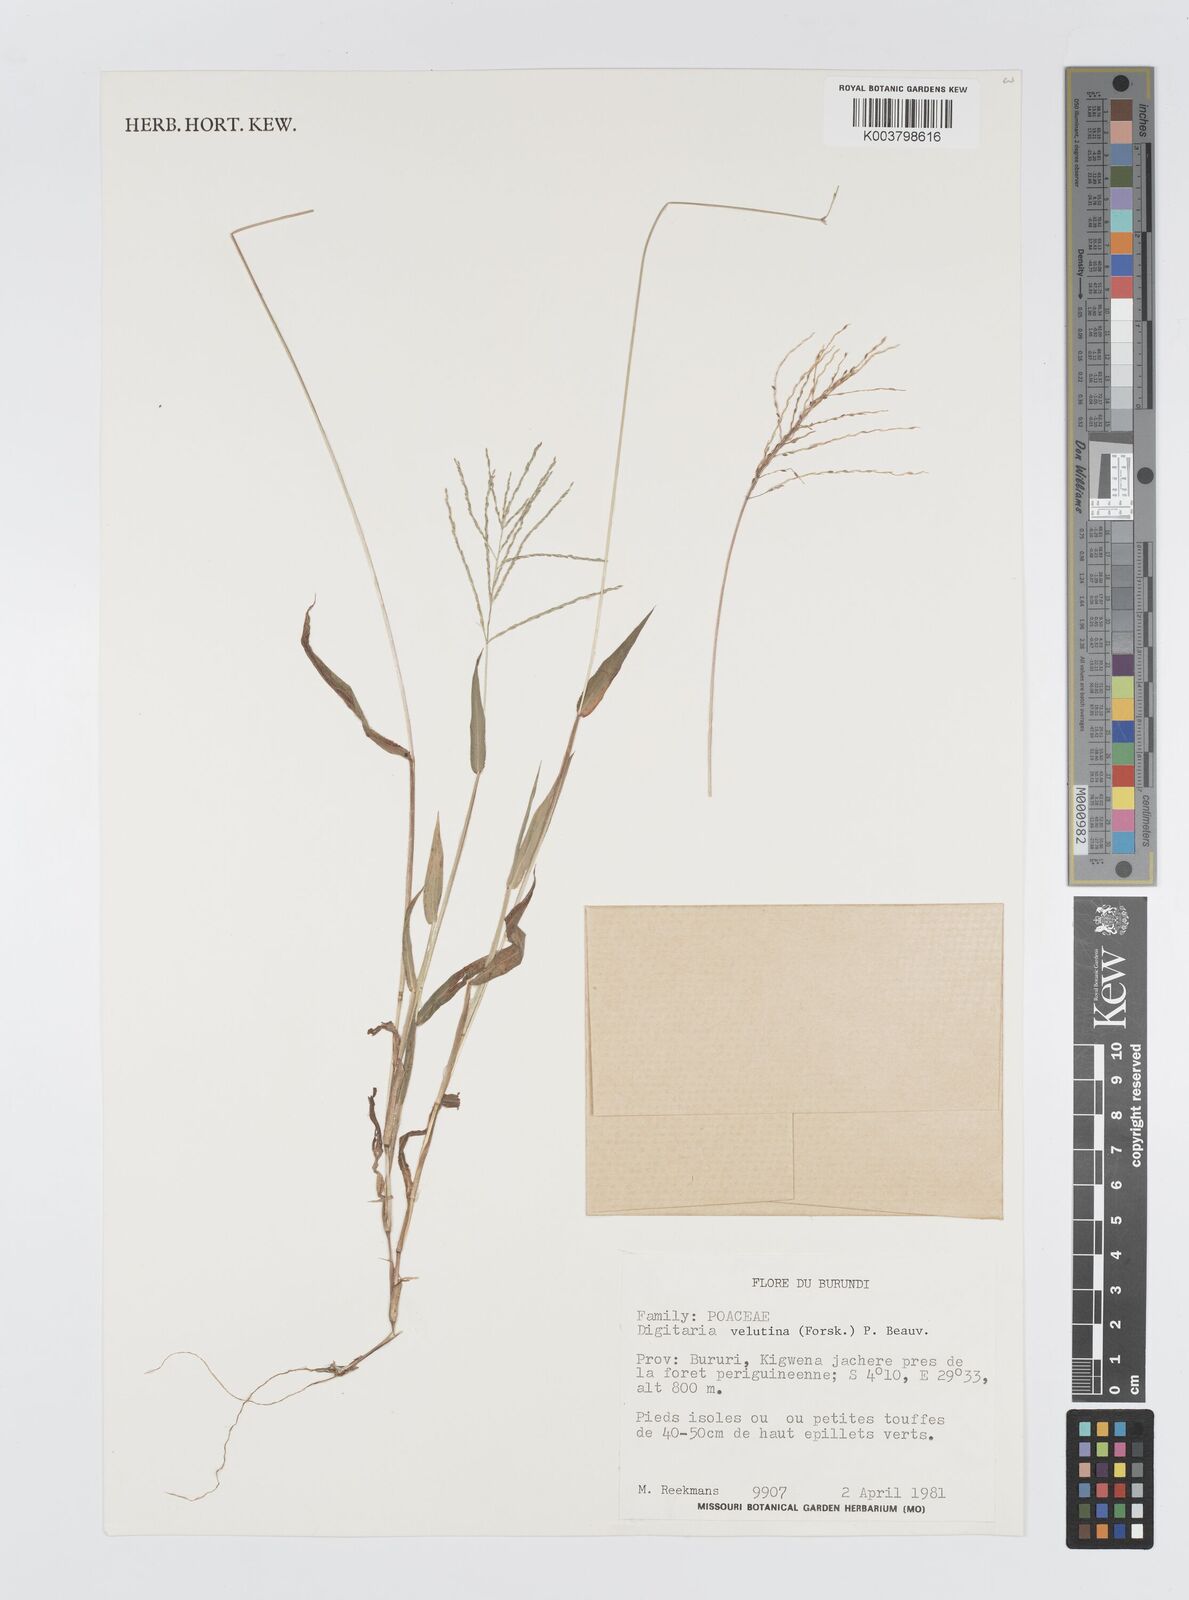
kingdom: Plantae
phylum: Tracheophyta
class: Liliopsida
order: Poales
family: Poaceae
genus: Digitaria
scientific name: Digitaria velutina
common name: Long-plume finger grass
